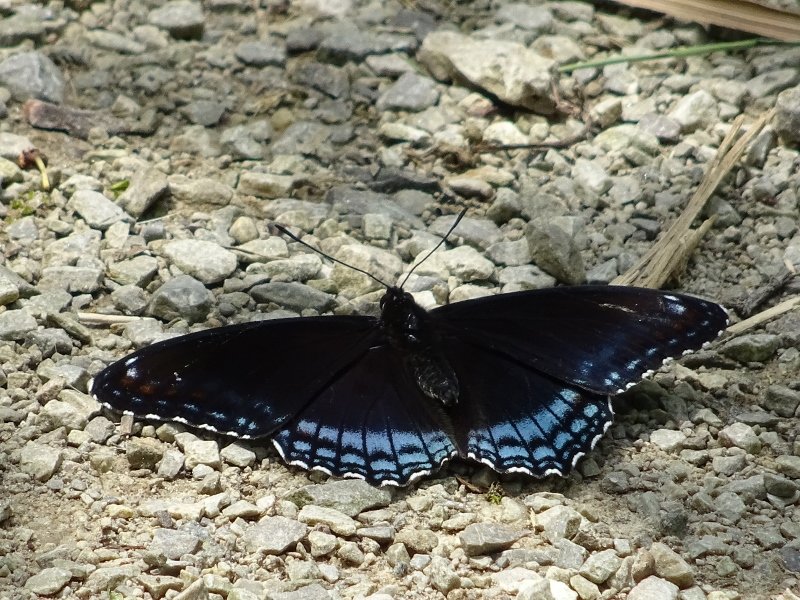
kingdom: Animalia
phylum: Arthropoda
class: Insecta
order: Lepidoptera
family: Nymphalidae
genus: Limenitis
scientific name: Limenitis astyanax
